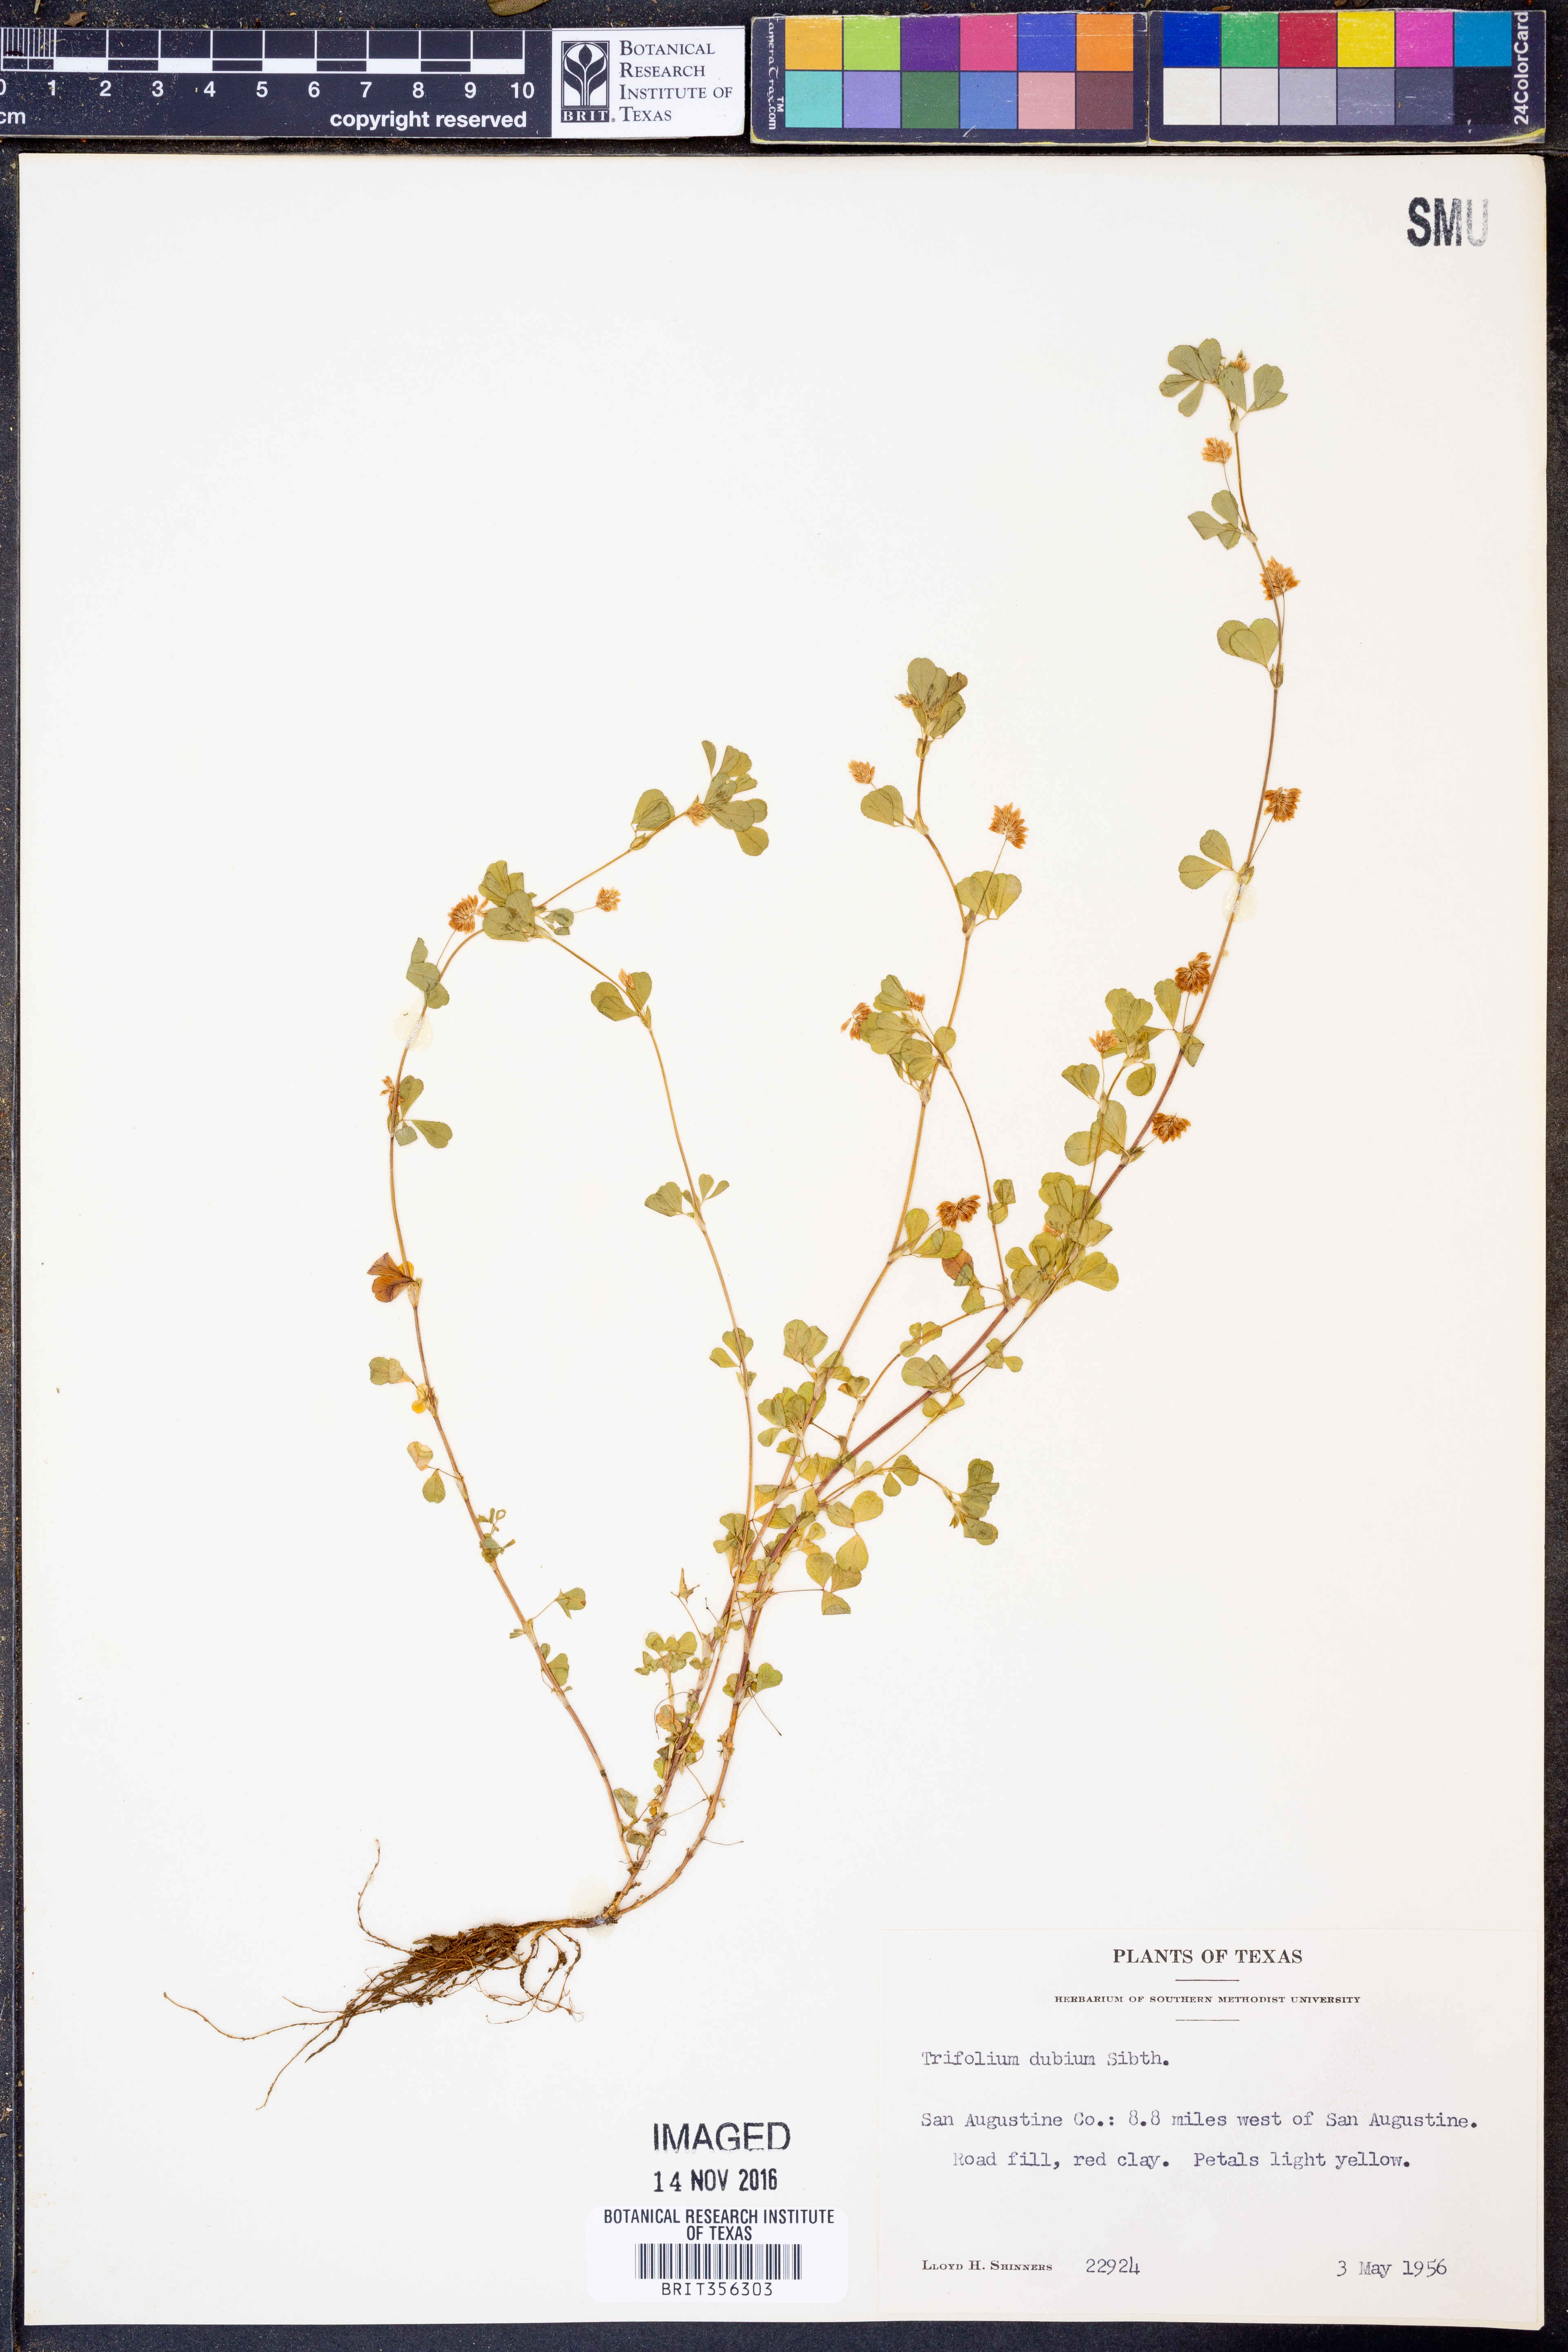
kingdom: Plantae
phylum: Tracheophyta
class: Magnoliopsida
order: Fabales
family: Fabaceae
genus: Trifolium
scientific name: Trifolium dubium
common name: Suckling clover
